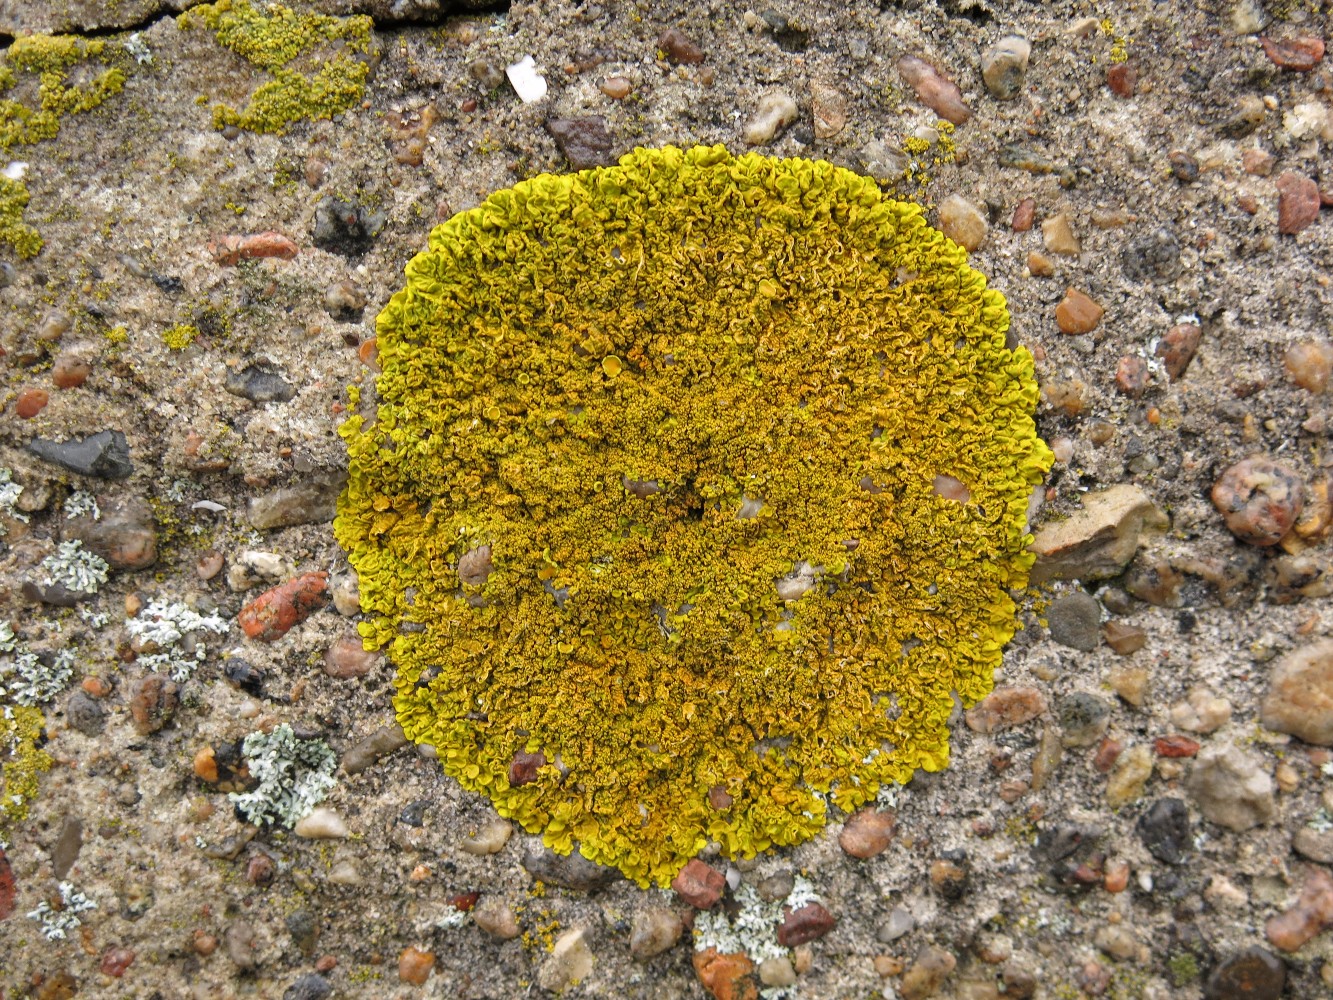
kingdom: Fungi
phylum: Ascomycota
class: Lecanoromycetes
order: Teloschistales
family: Teloschistaceae
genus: Xanthoria
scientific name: Xanthoria calcicola
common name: vortet væggelav
